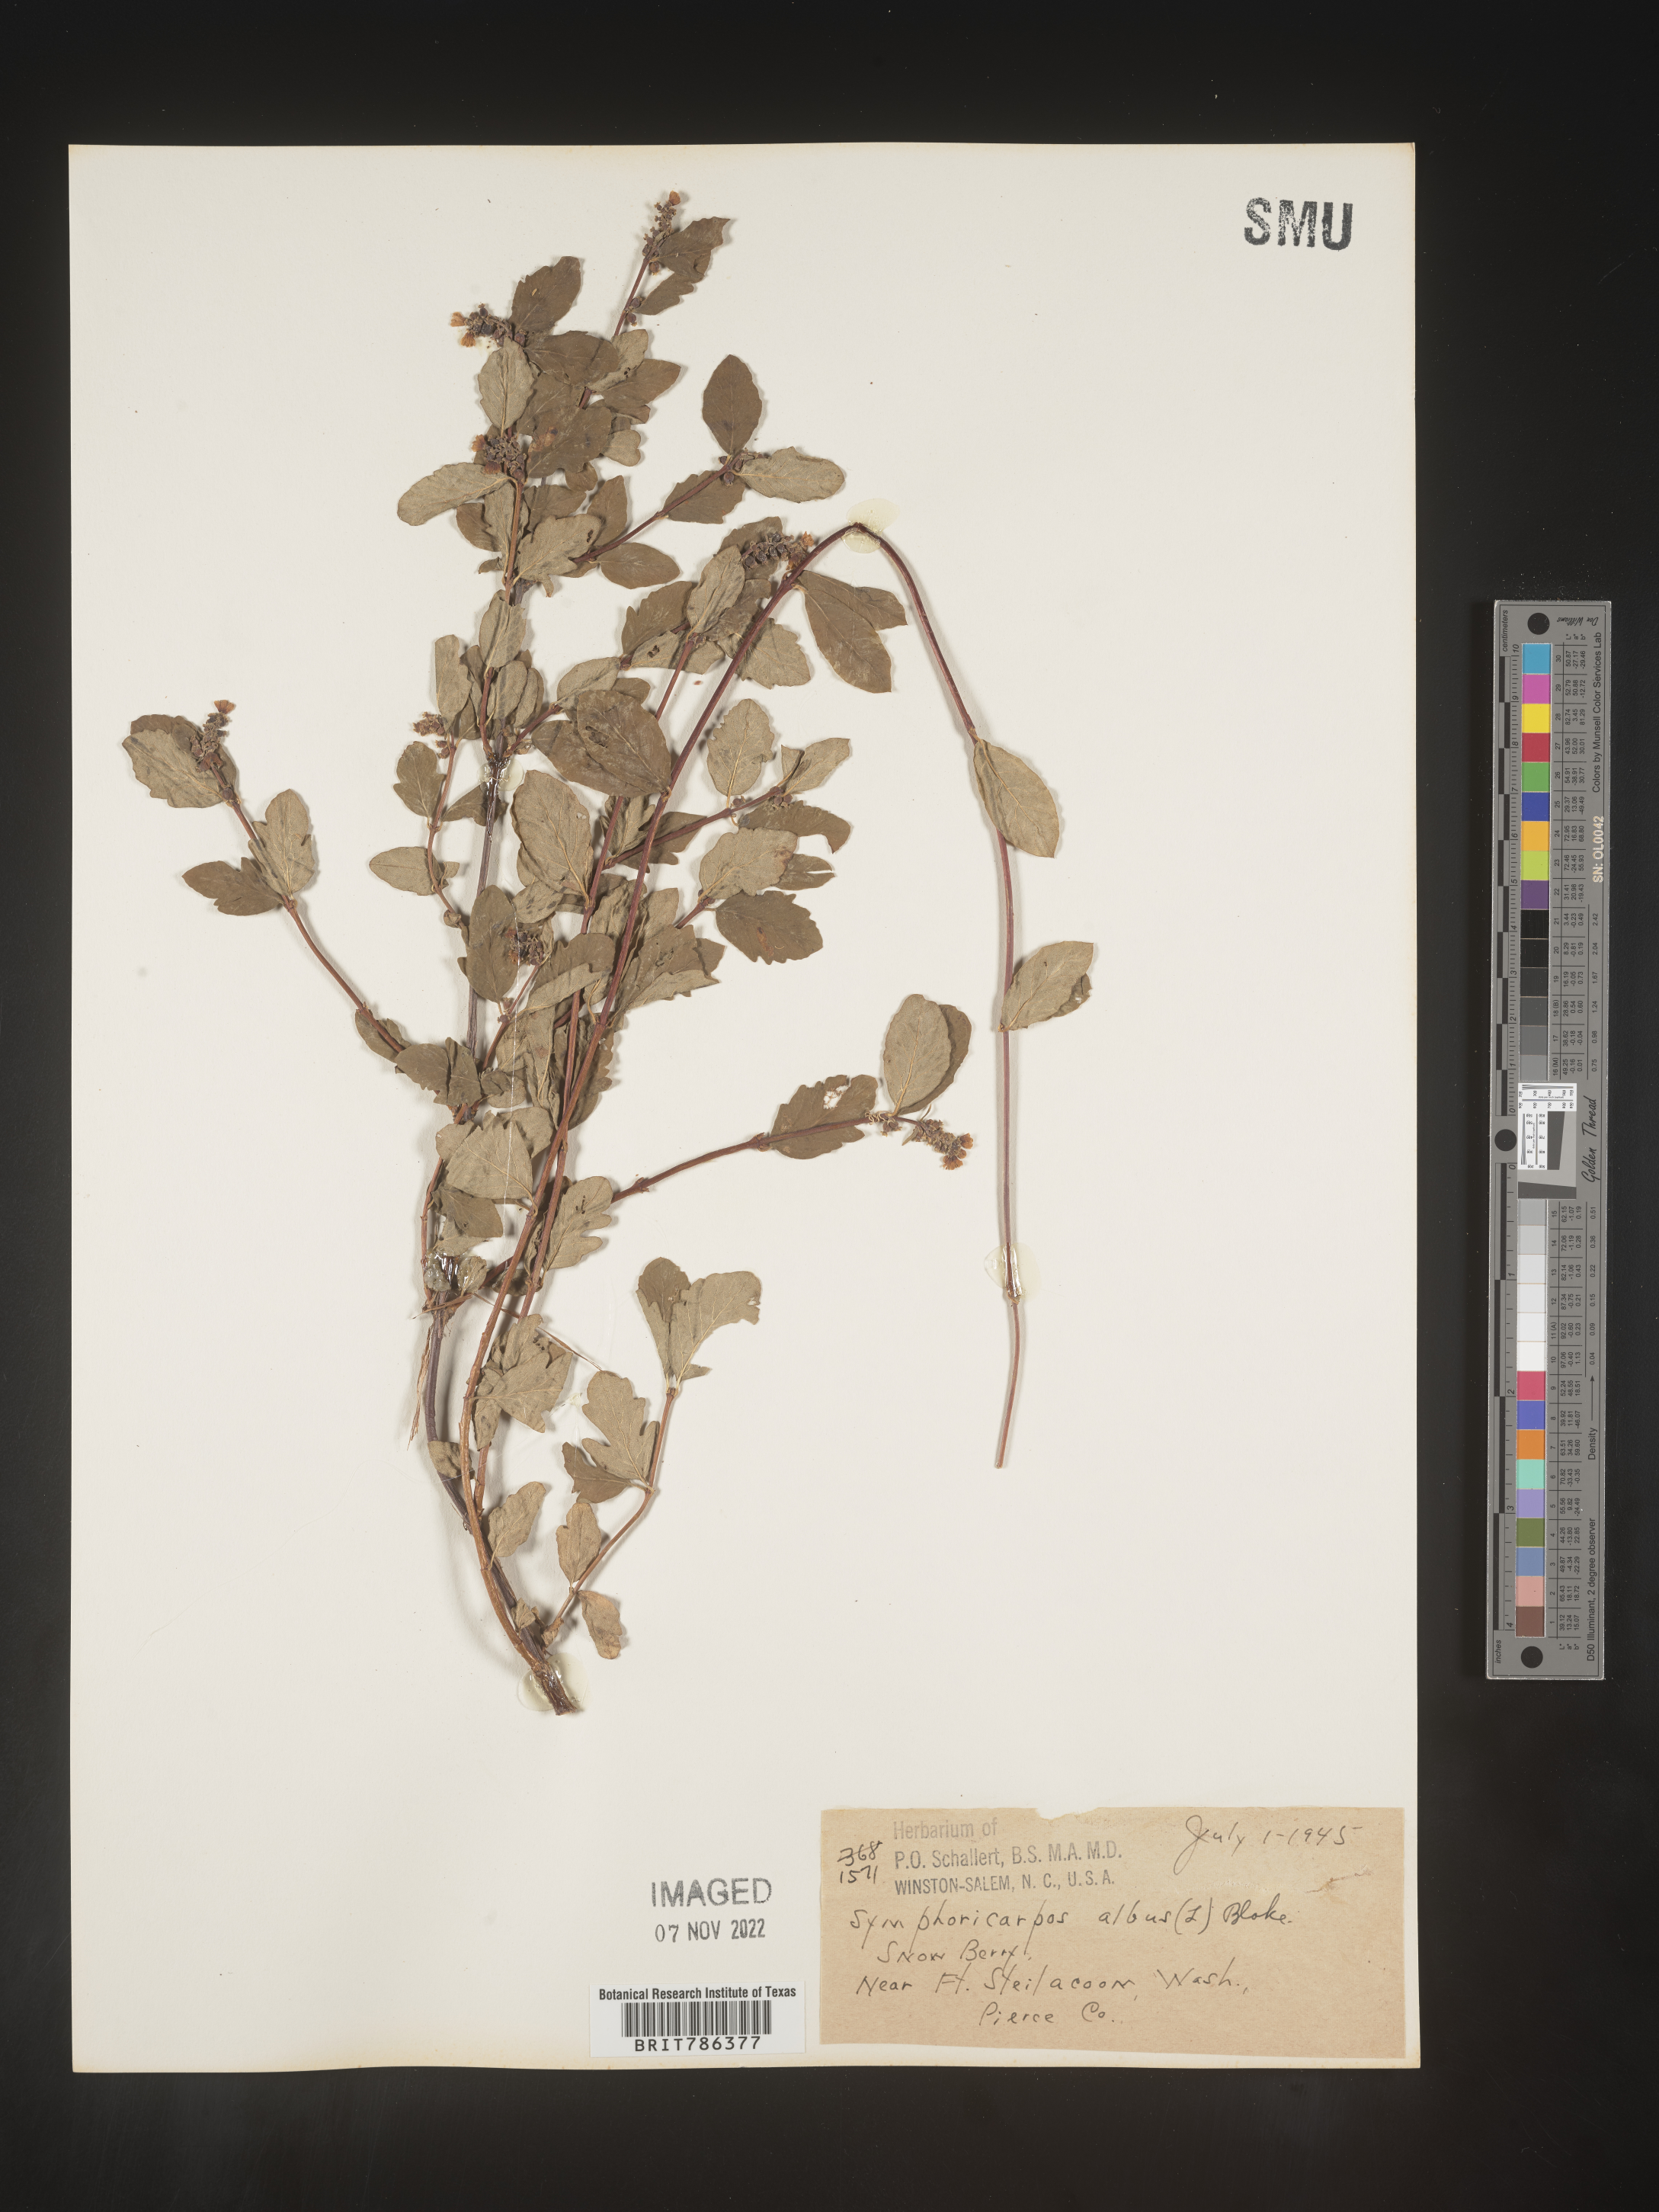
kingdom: Plantae
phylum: Tracheophyta
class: Magnoliopsida
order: Dipsacales
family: Caprifoliaceae
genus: Symphoricarpos
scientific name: Symphoricarpos albus
